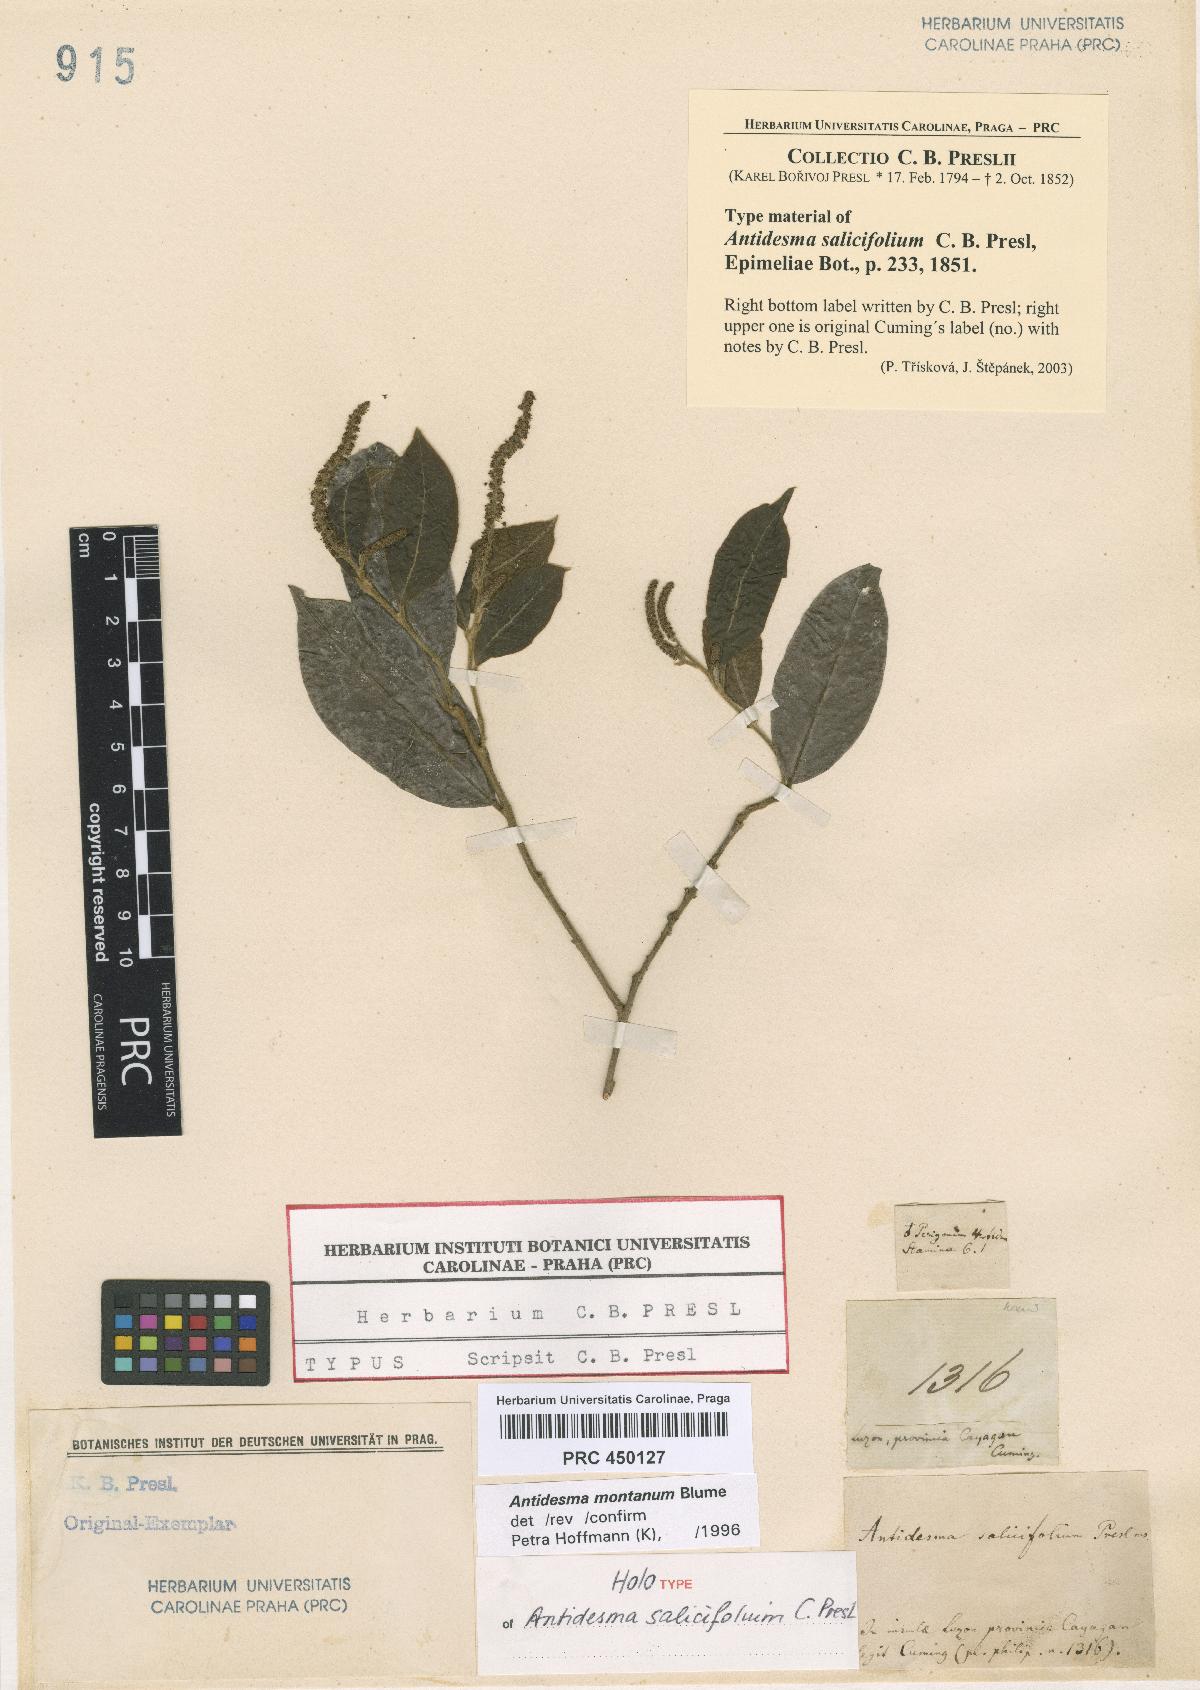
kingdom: Plantae
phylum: Tracheophyta
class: Magnoliopsida
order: Malpighiales
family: Phyllanthaceae
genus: Antidesma
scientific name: Antidesma montanum
